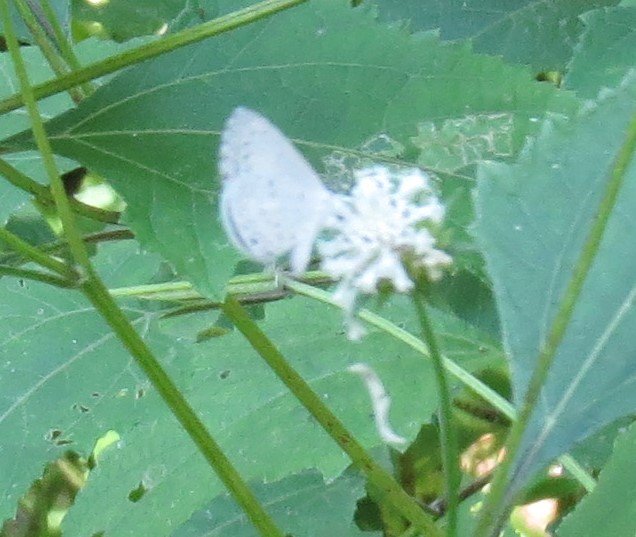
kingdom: Animalia
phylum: Arthropoda
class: Insecta
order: Lepidoptera
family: Lycaenidae
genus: Cyaniris
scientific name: Cyaniris neglecta
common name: Summer Azure
